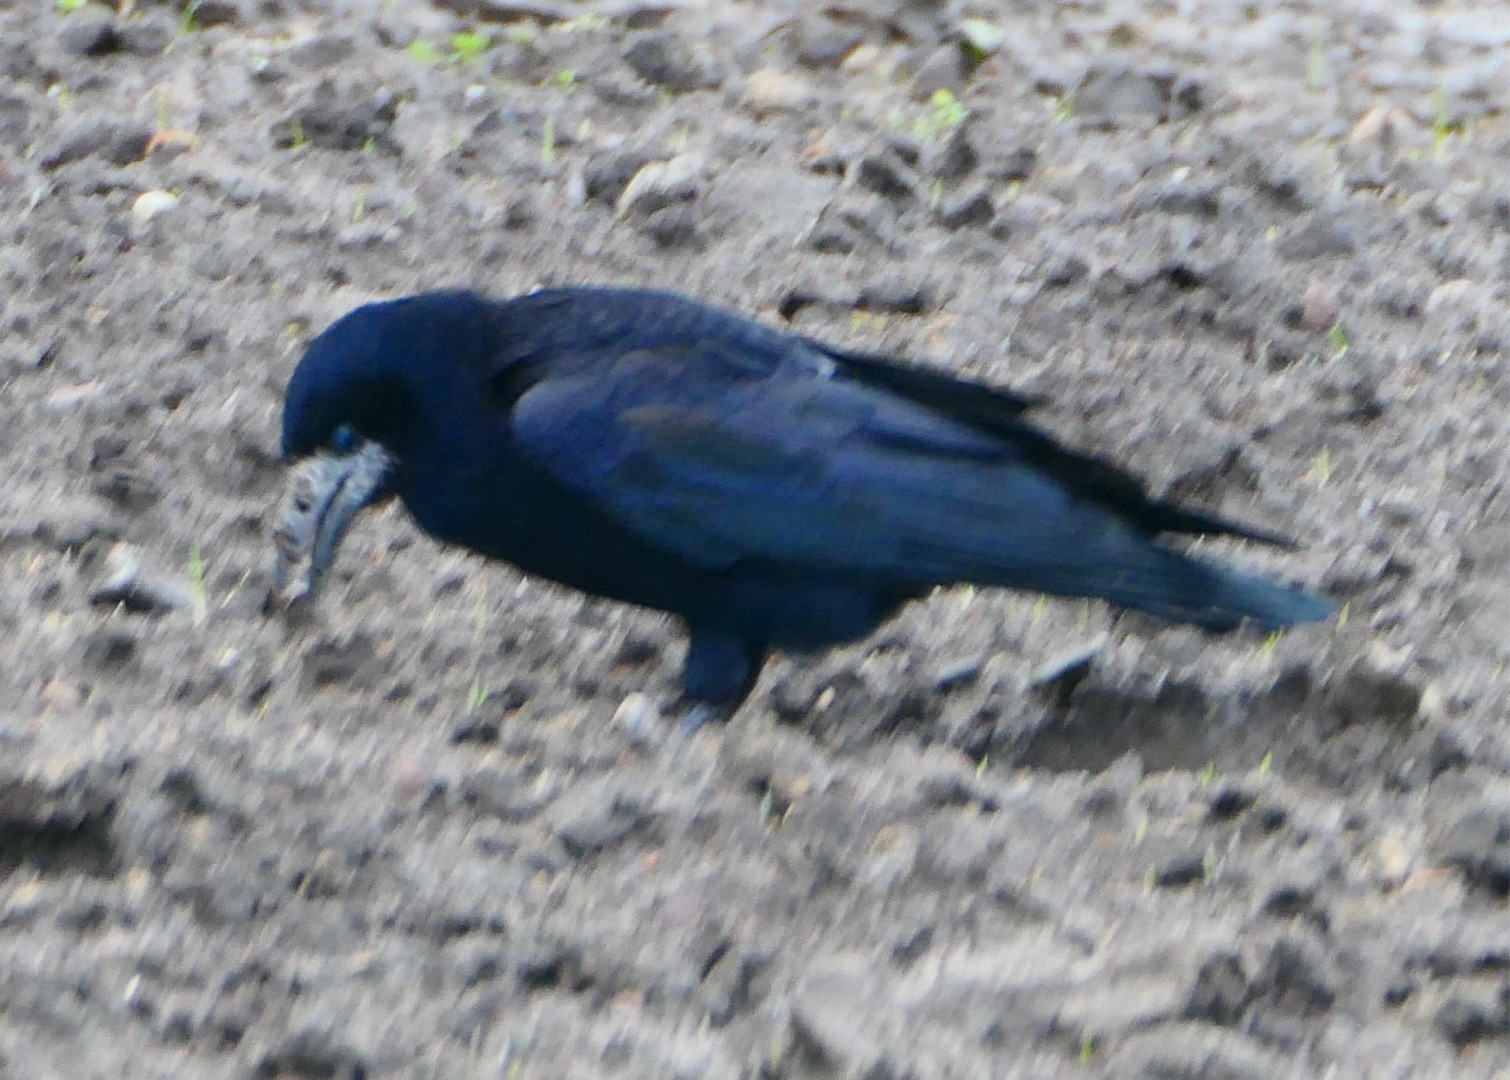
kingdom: Animalia
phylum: Chordata
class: Aves
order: Passeriformes
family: Corvidae
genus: Corvus
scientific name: Corvus frugilegus
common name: Råge
